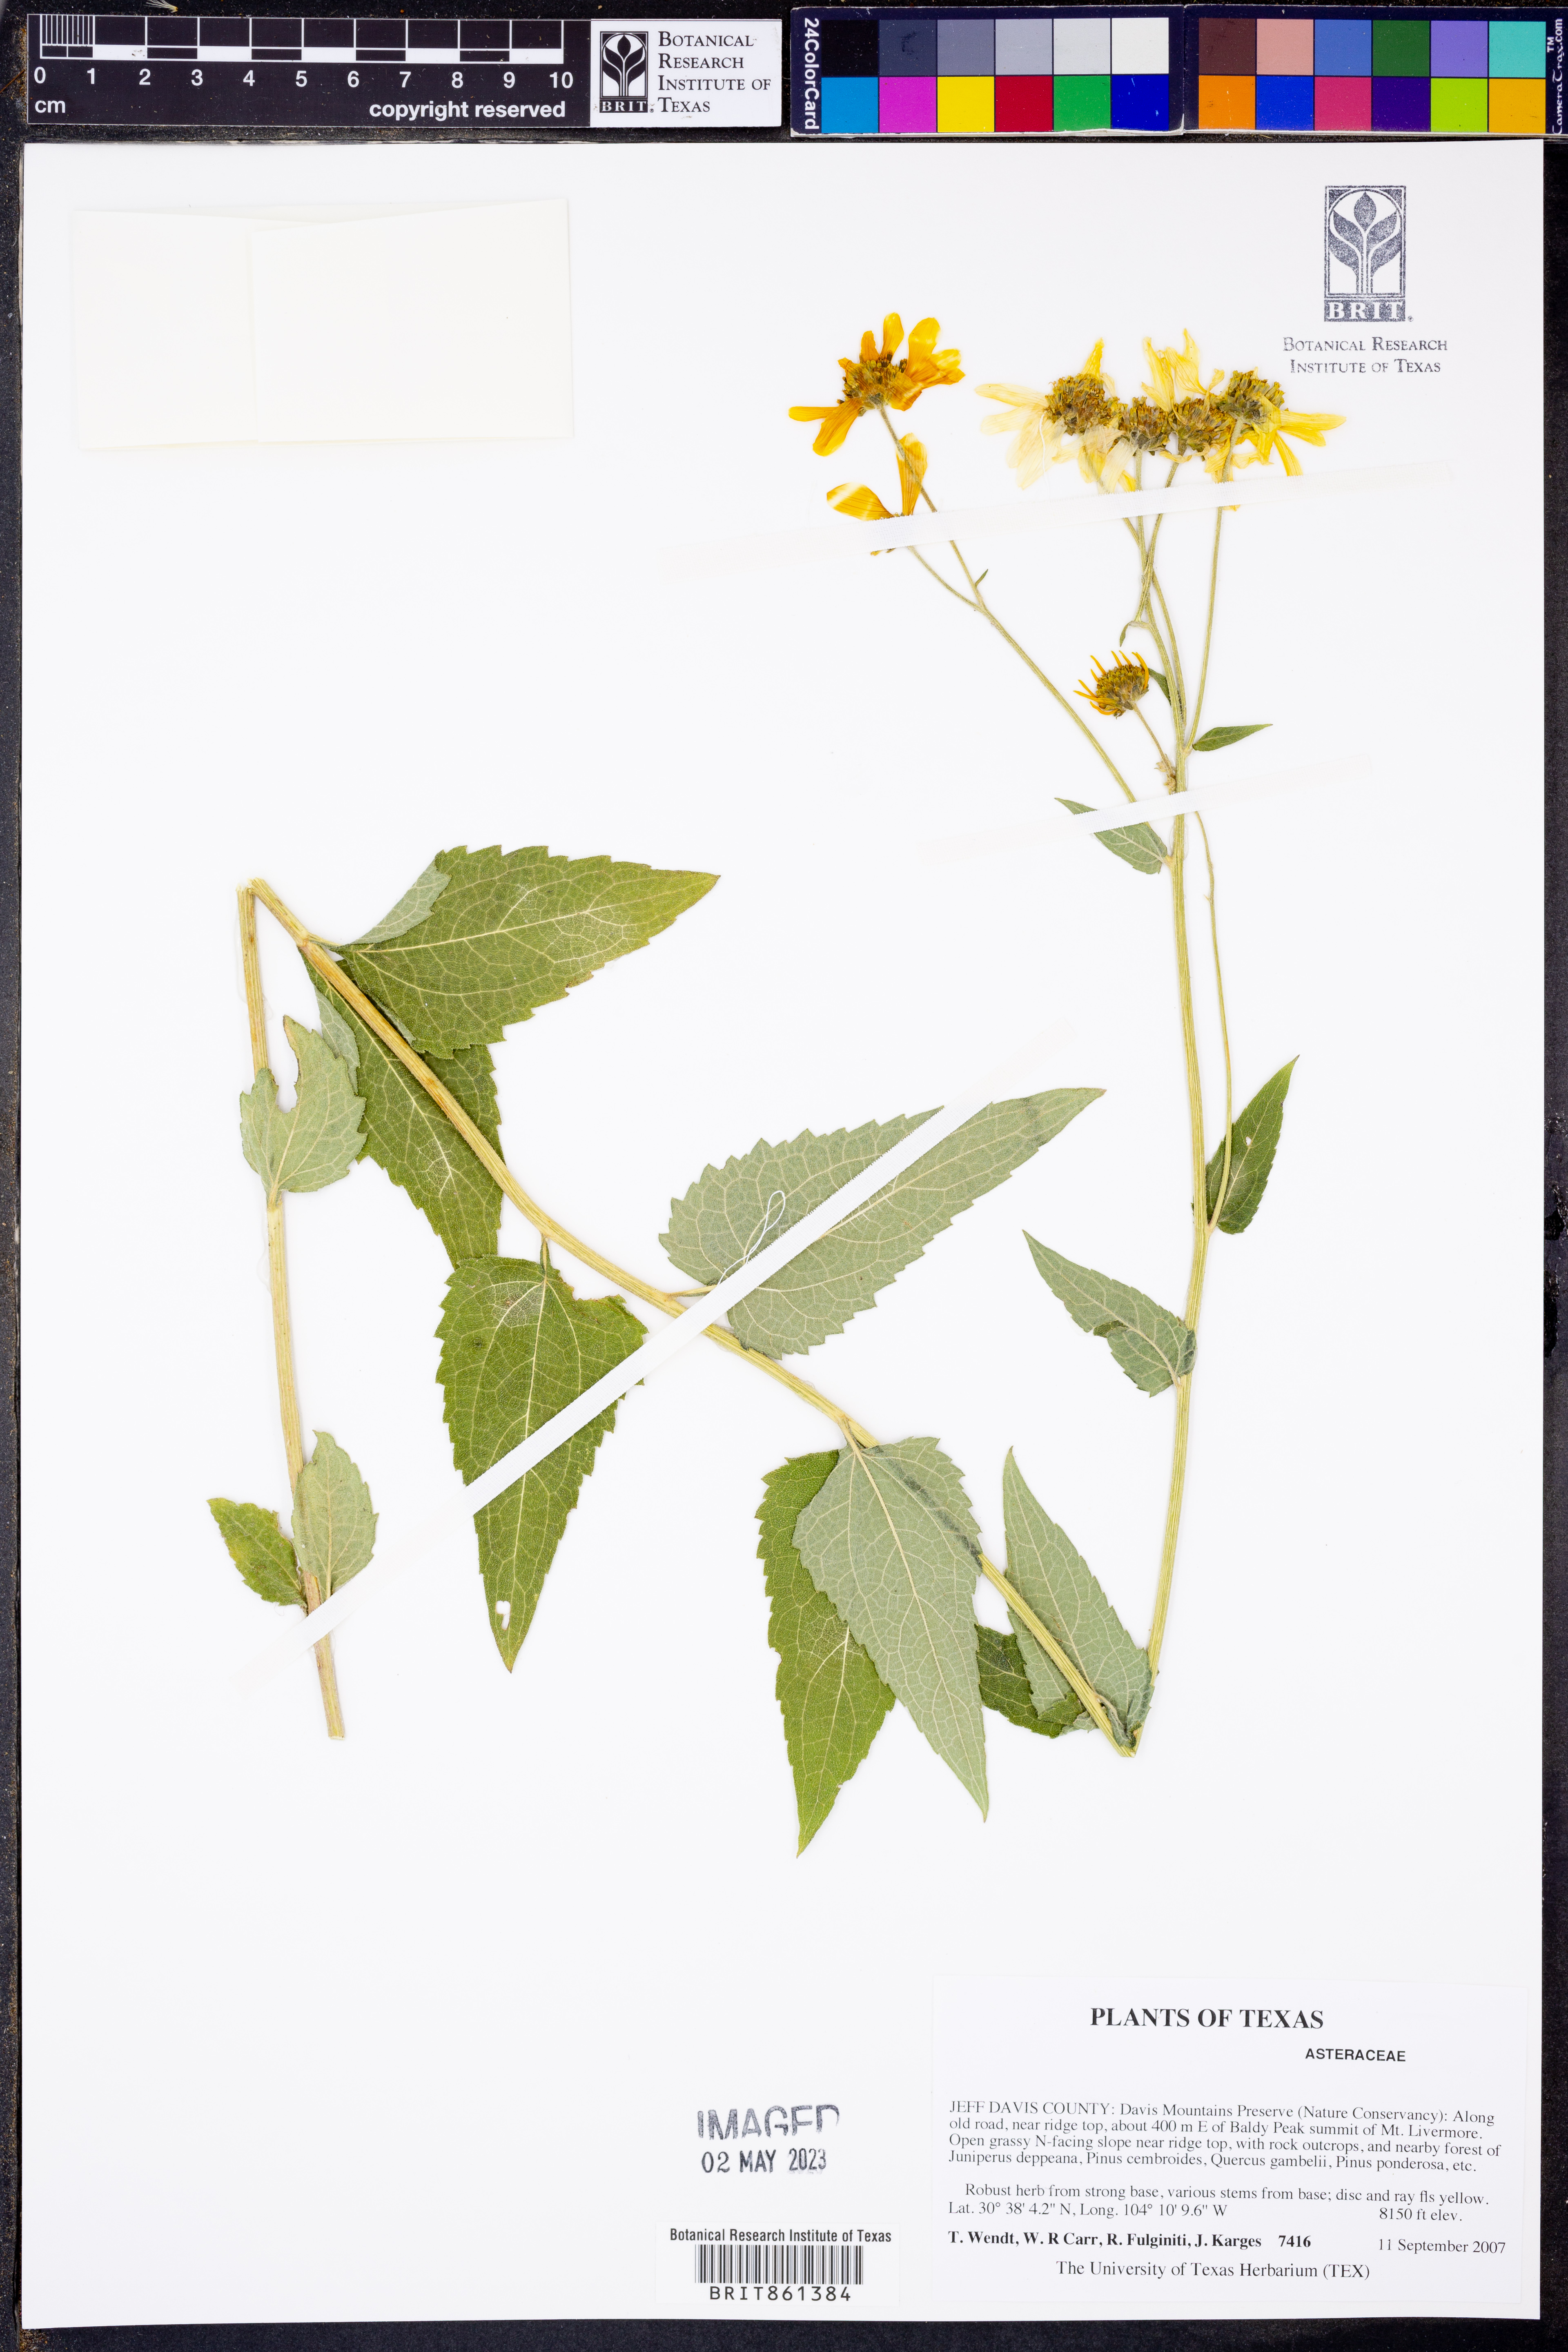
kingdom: Plantae
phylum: Tracheophyta
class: Magnoliopsida
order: Asterales
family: Asteraceae
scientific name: Asteraceae
